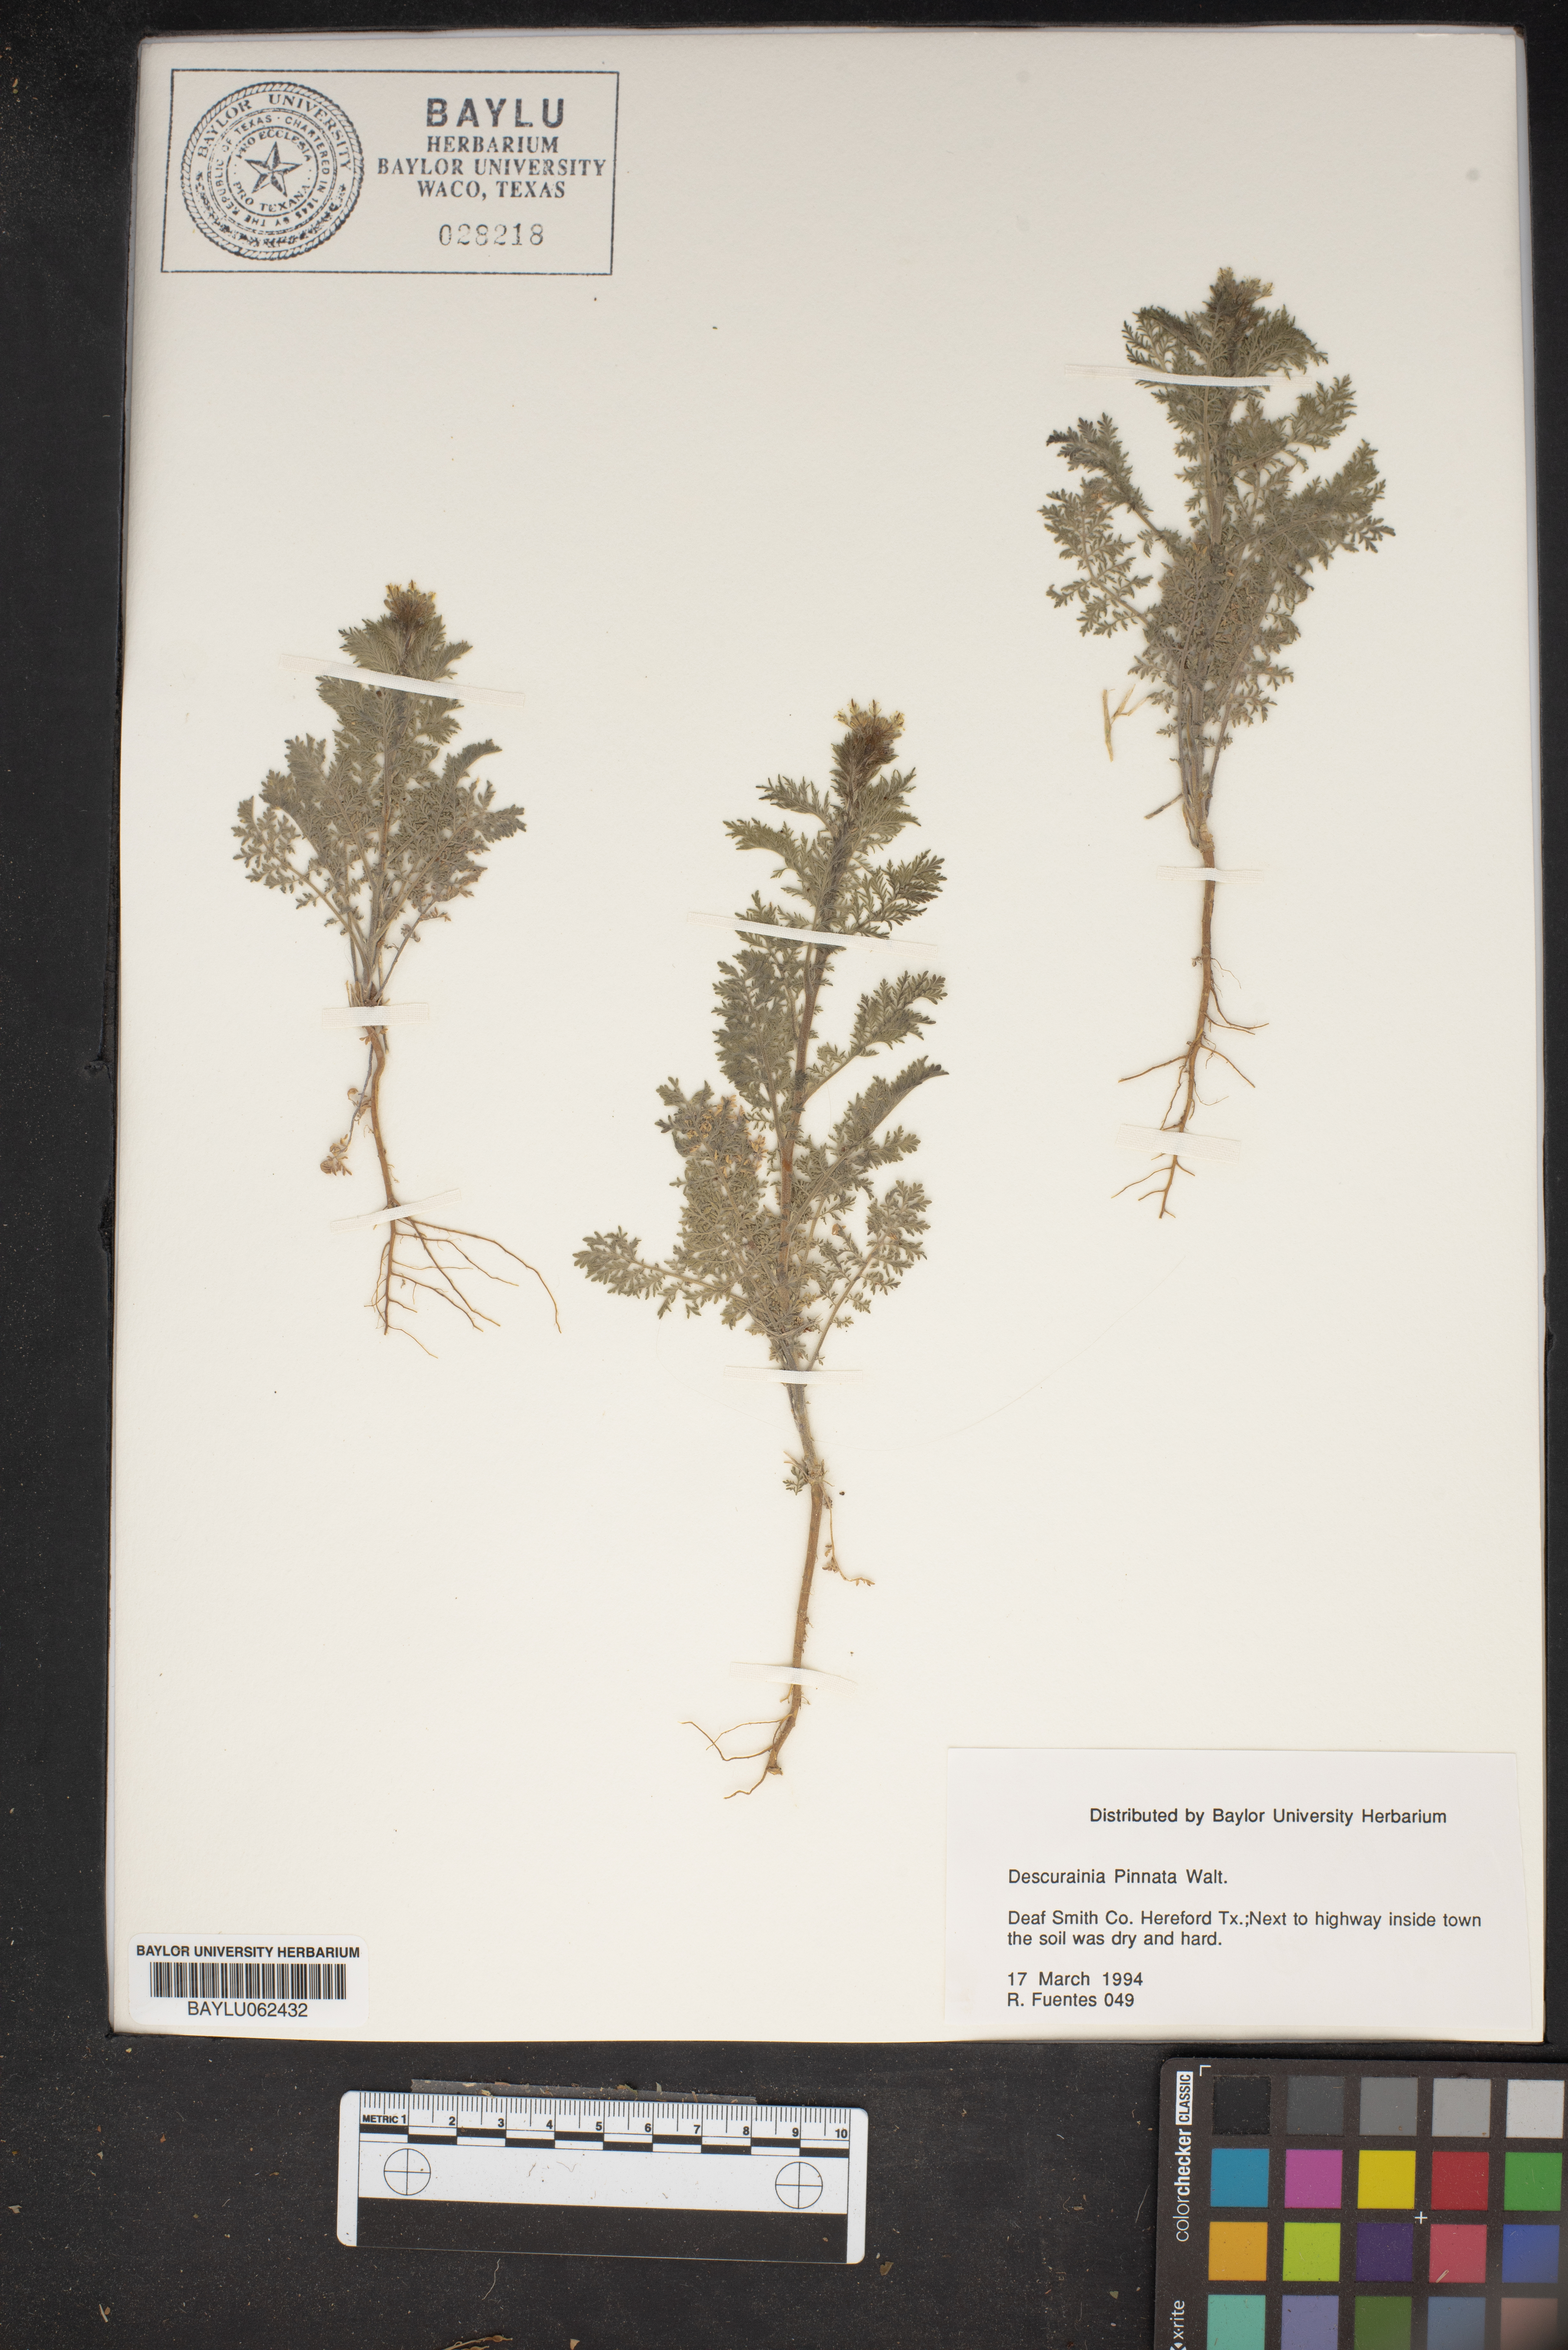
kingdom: Plantae
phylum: Tracheophyta
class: Magnoliopsida
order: Brassicales
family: Brassicaceae
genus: Descurainia
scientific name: Descurainia pinnata
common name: Western tansy mustard
